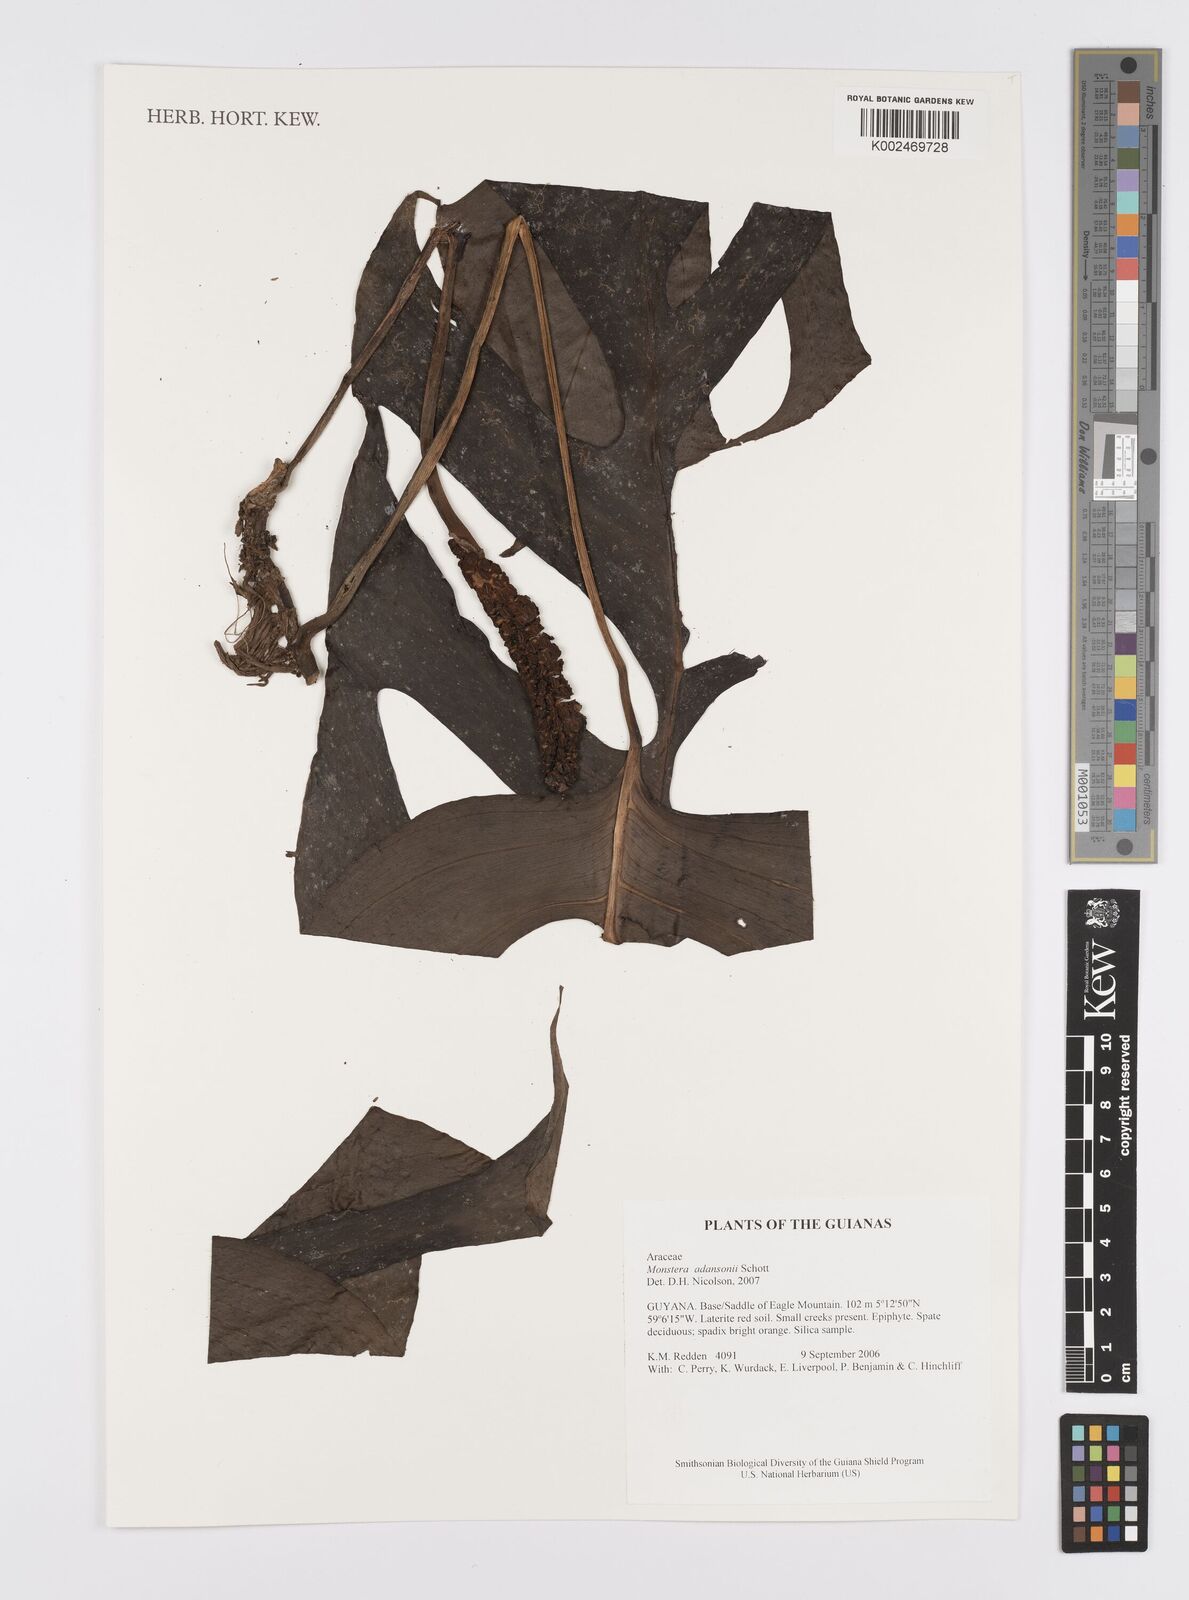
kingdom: Plantae
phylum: Tracheophyta
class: Liliopsida
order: Alismatales
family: Araceae
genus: Monstera
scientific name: Monstera adansonii
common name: Tarovine
